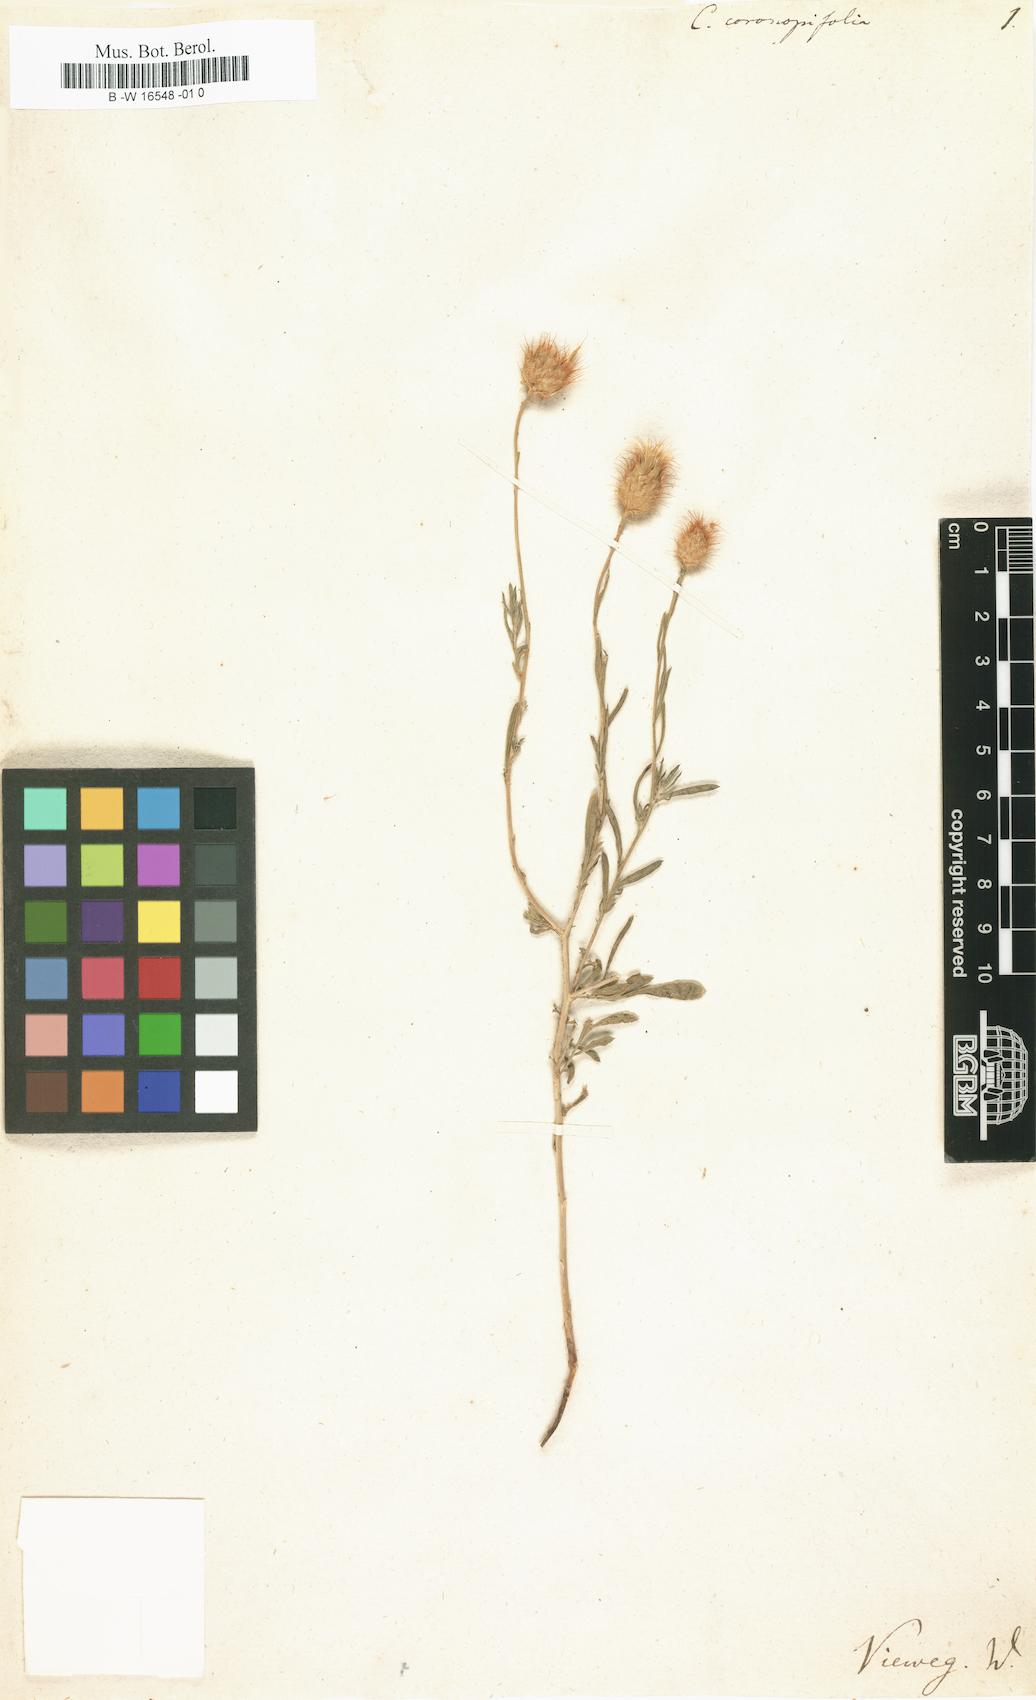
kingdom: Plantae
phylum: Tracheophyta
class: Magnoliopsida
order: Asterales
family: Asteraceae
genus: Stizolophus
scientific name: Stizolophus coronopifolius
